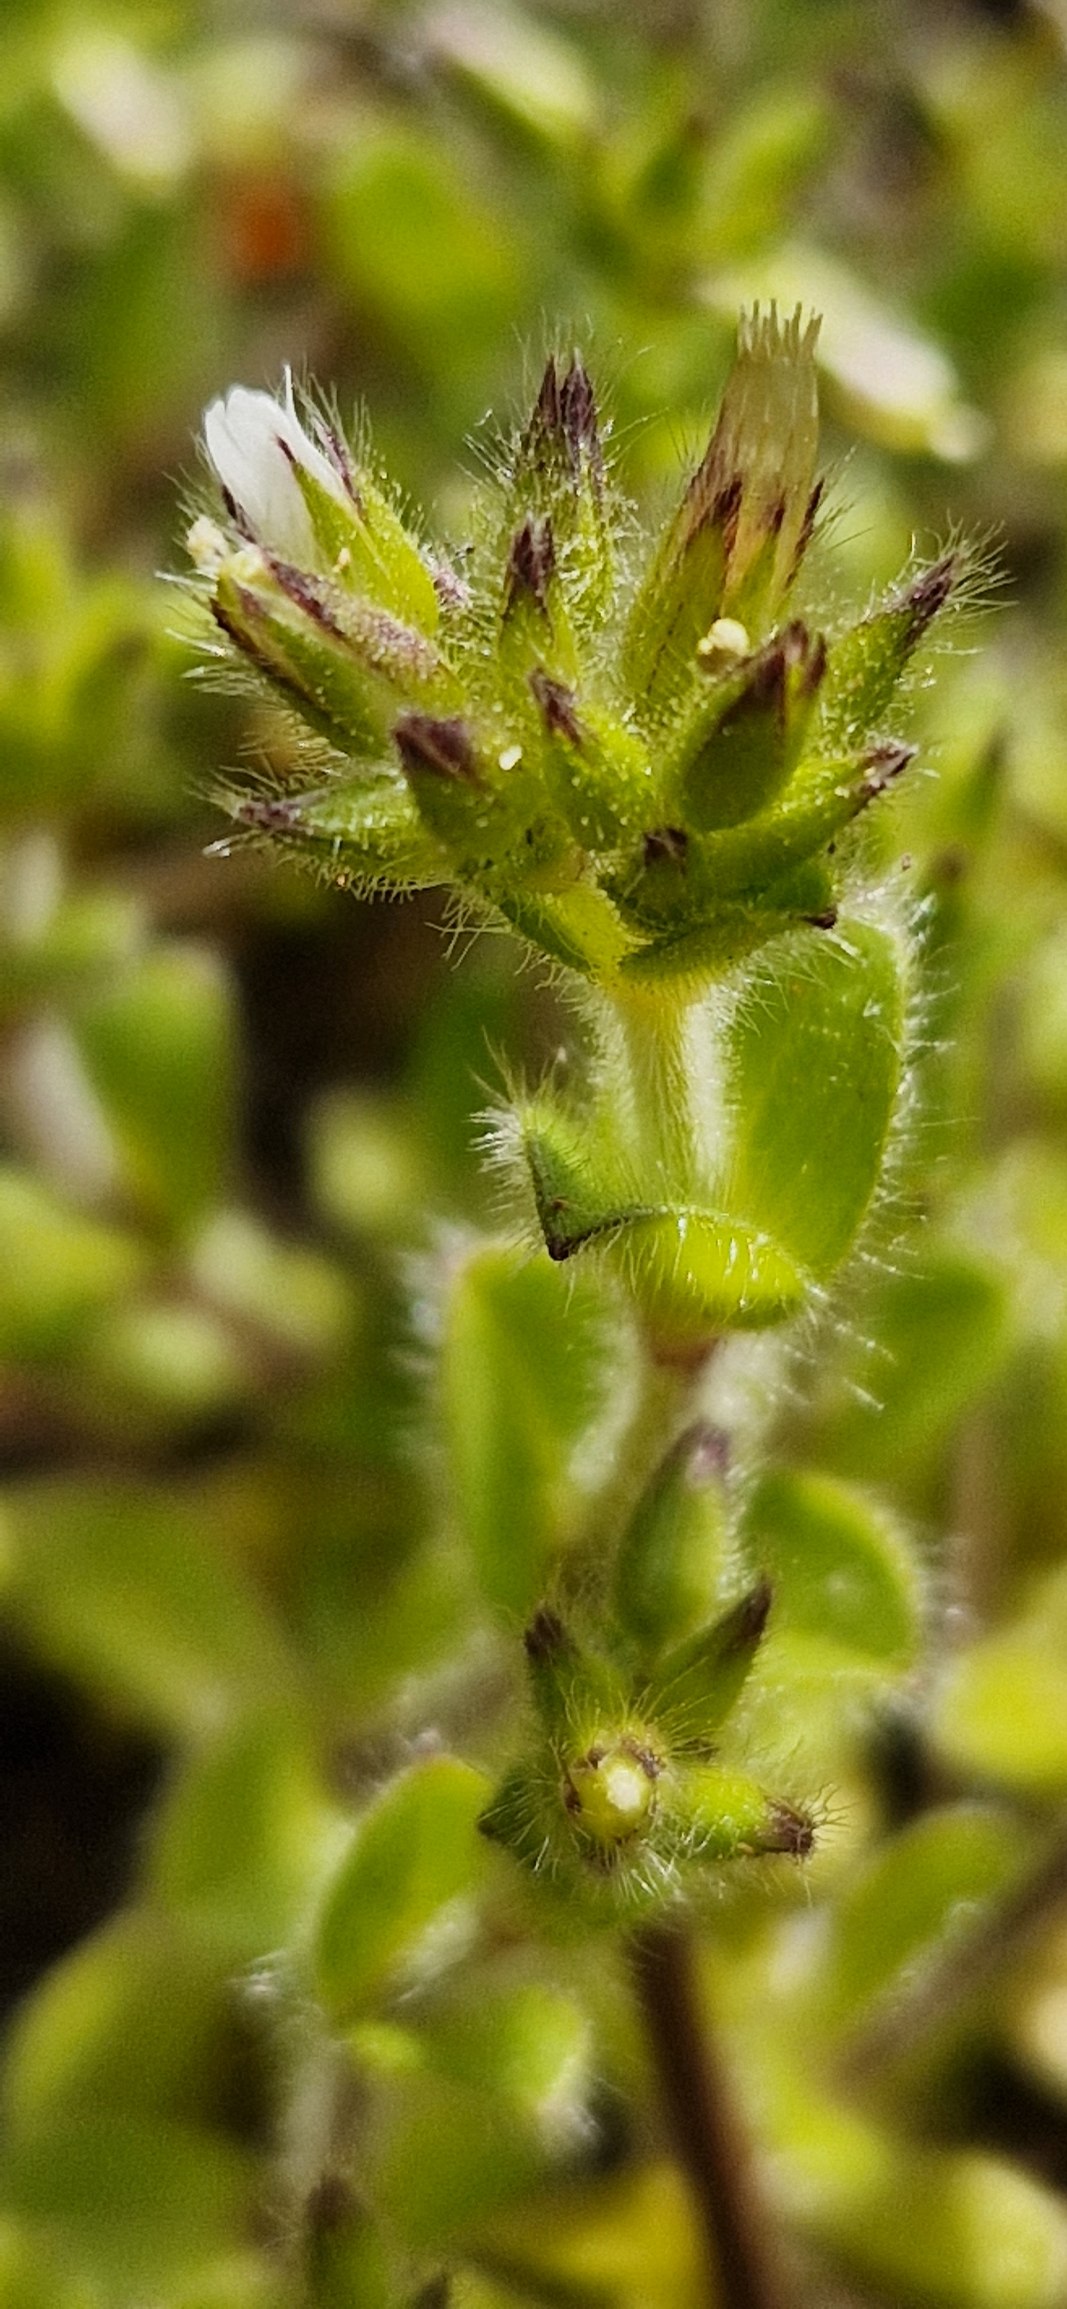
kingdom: Plantae
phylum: Tracheophyta
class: Magnoliopsida
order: Caryophyllales
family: Caryophyllaceae
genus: Cerastium
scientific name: Cerastium glomeratum
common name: Opret hønsetarm
